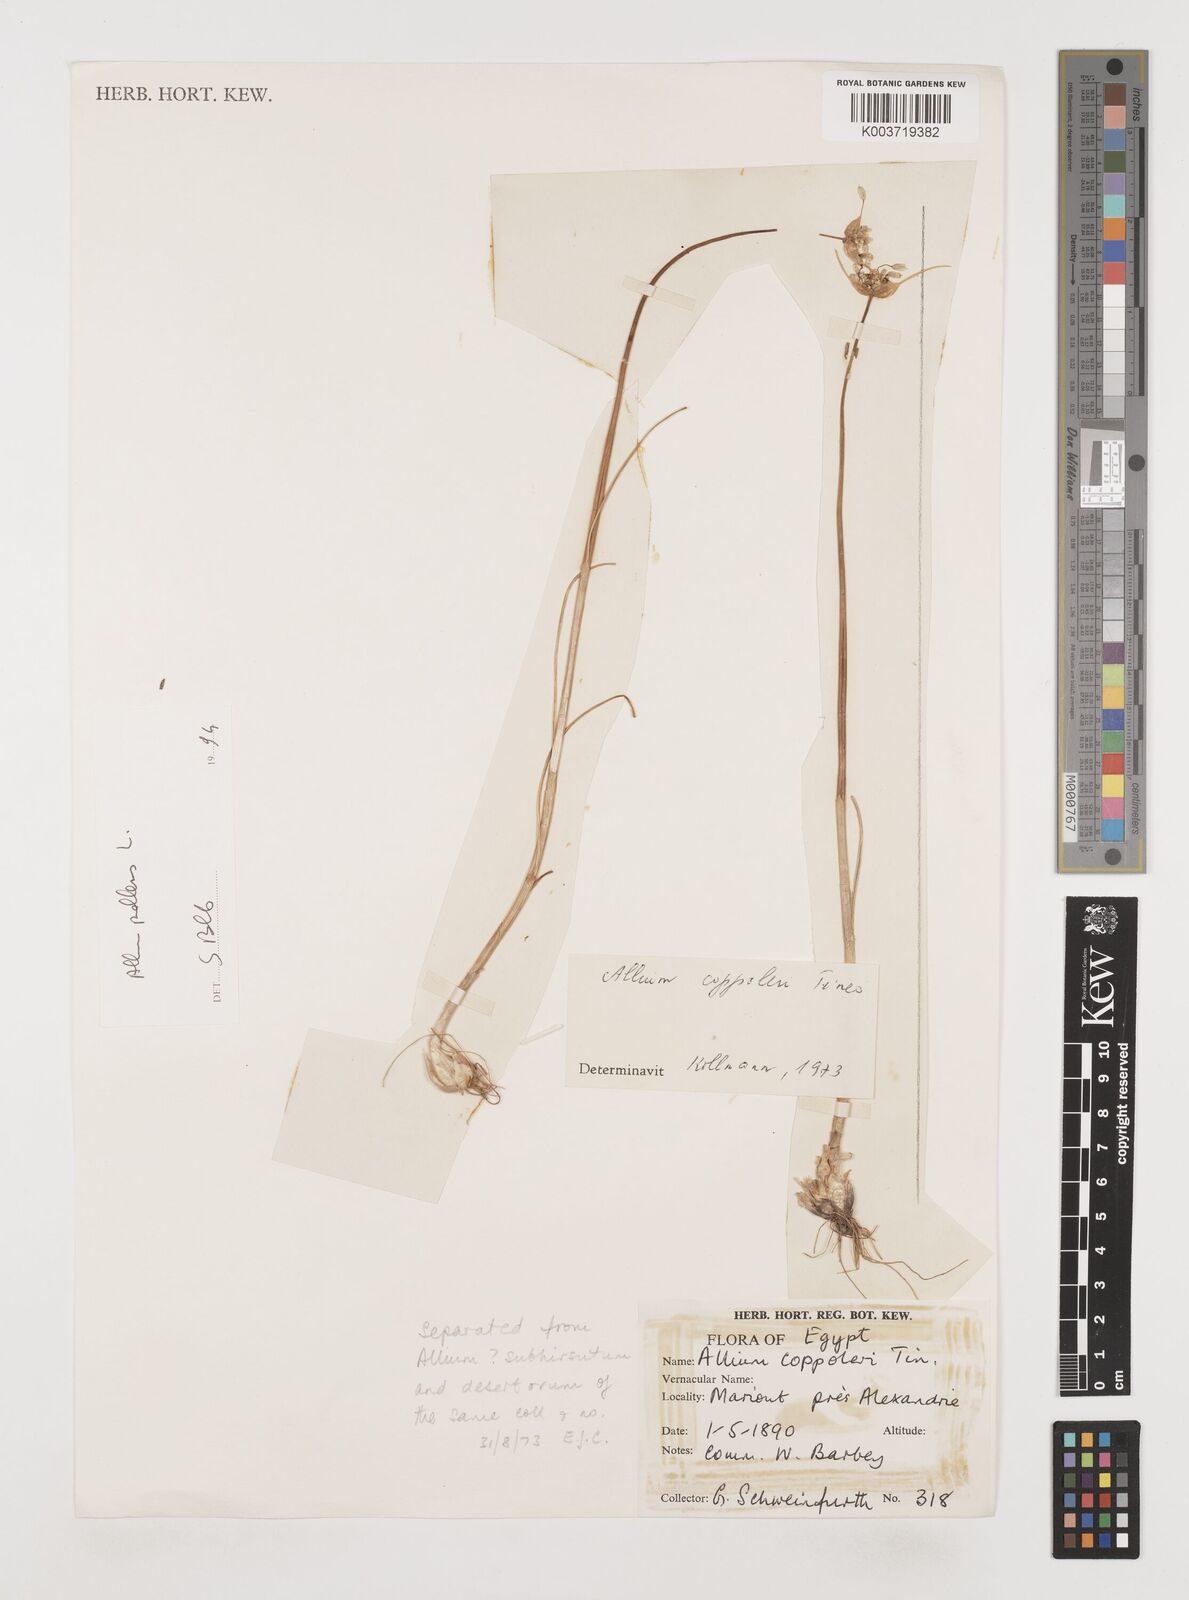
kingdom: Plantae
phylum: Tracheophyta
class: Liliopsida
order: Asparagales
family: Amaryllidaceae
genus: Allium
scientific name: Allium coppoleri
